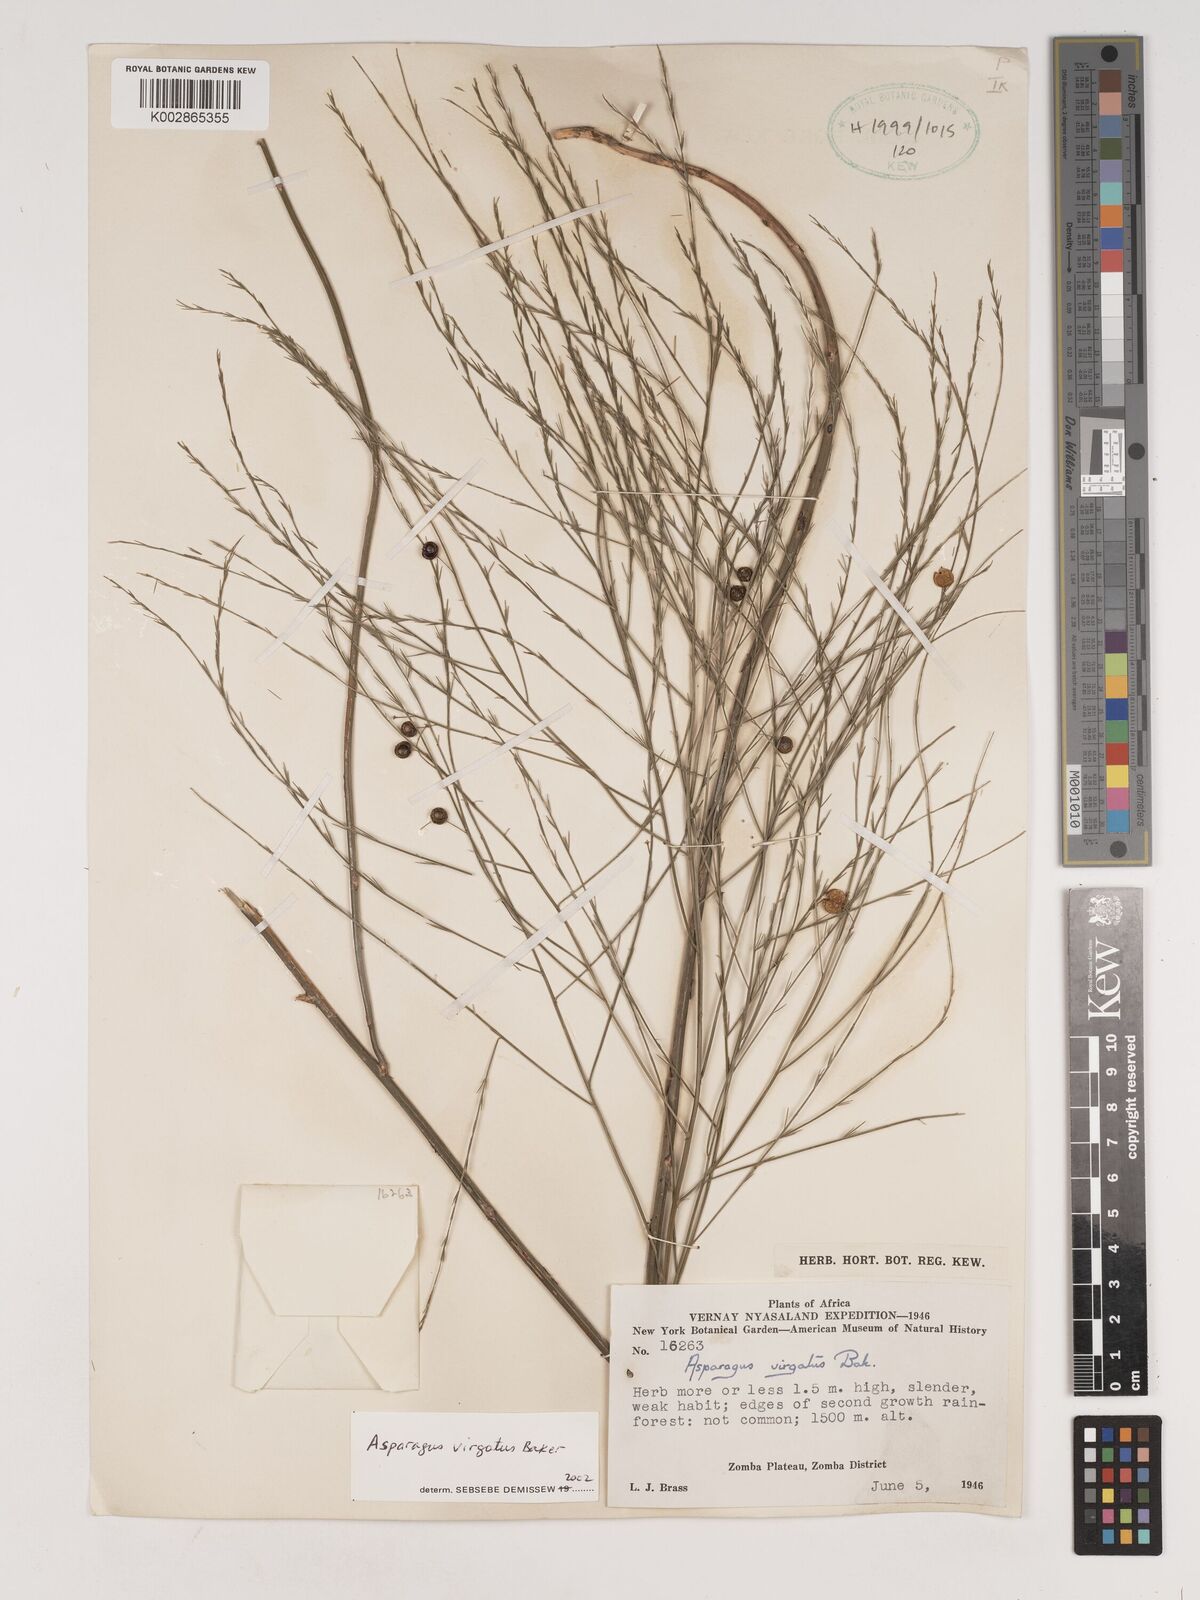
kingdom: Plantae
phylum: Tracheophyta
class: Liliopsida
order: Asparagales
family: Asparagaceae
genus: Asparagus
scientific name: Asparagus virgatus
